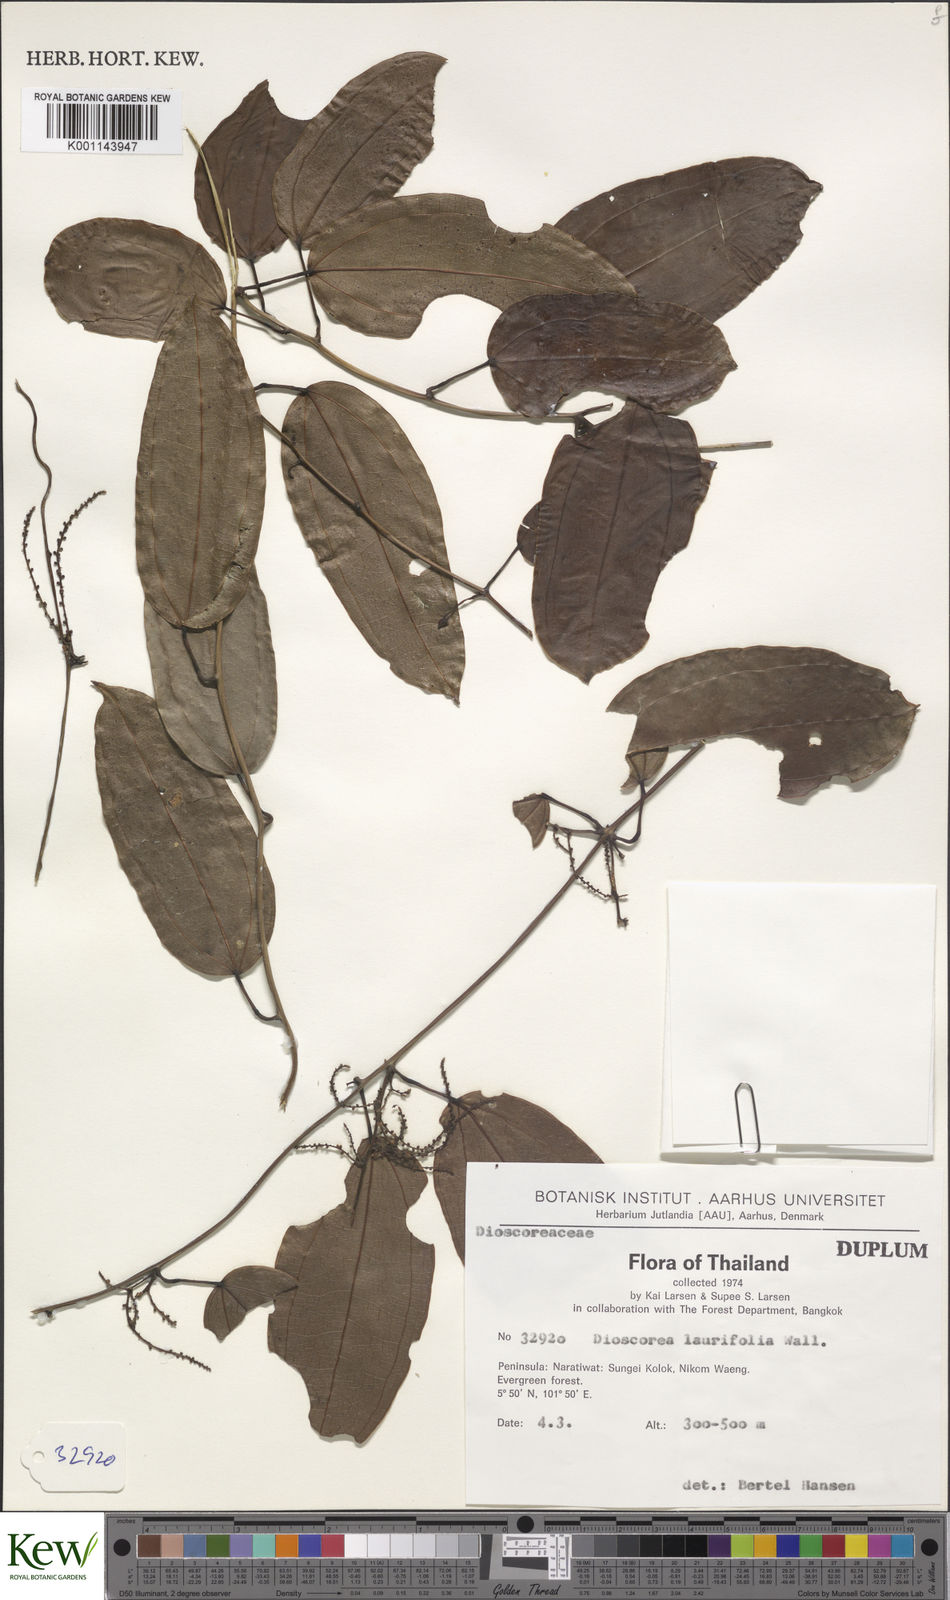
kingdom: Plantae
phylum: Tracheophyta
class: Liliopsida
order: Dioscoreales
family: Dioscoreaceae
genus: Dioscorea
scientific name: Dioscorea laurifolia
